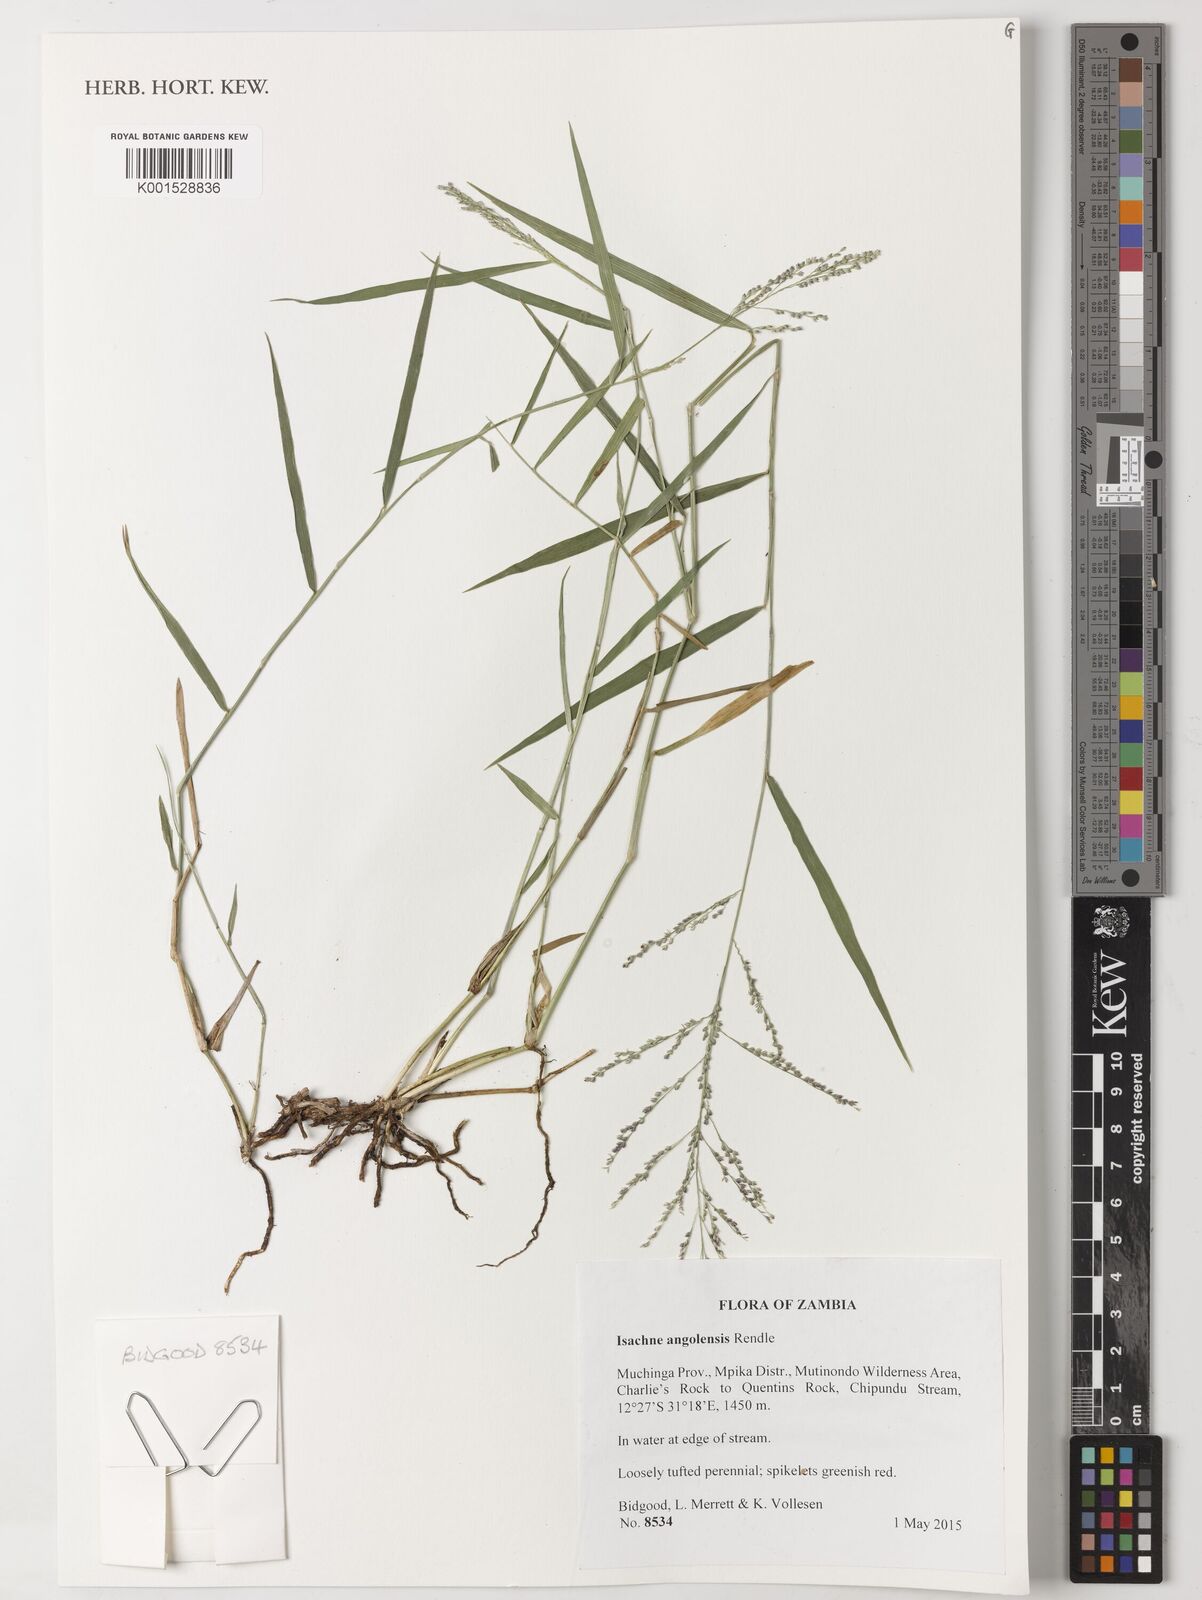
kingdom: Plantae
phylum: Tracheophyta
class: Liliopsida
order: Poales
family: Poaceae
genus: Isachne
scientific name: Isachne angolensis
